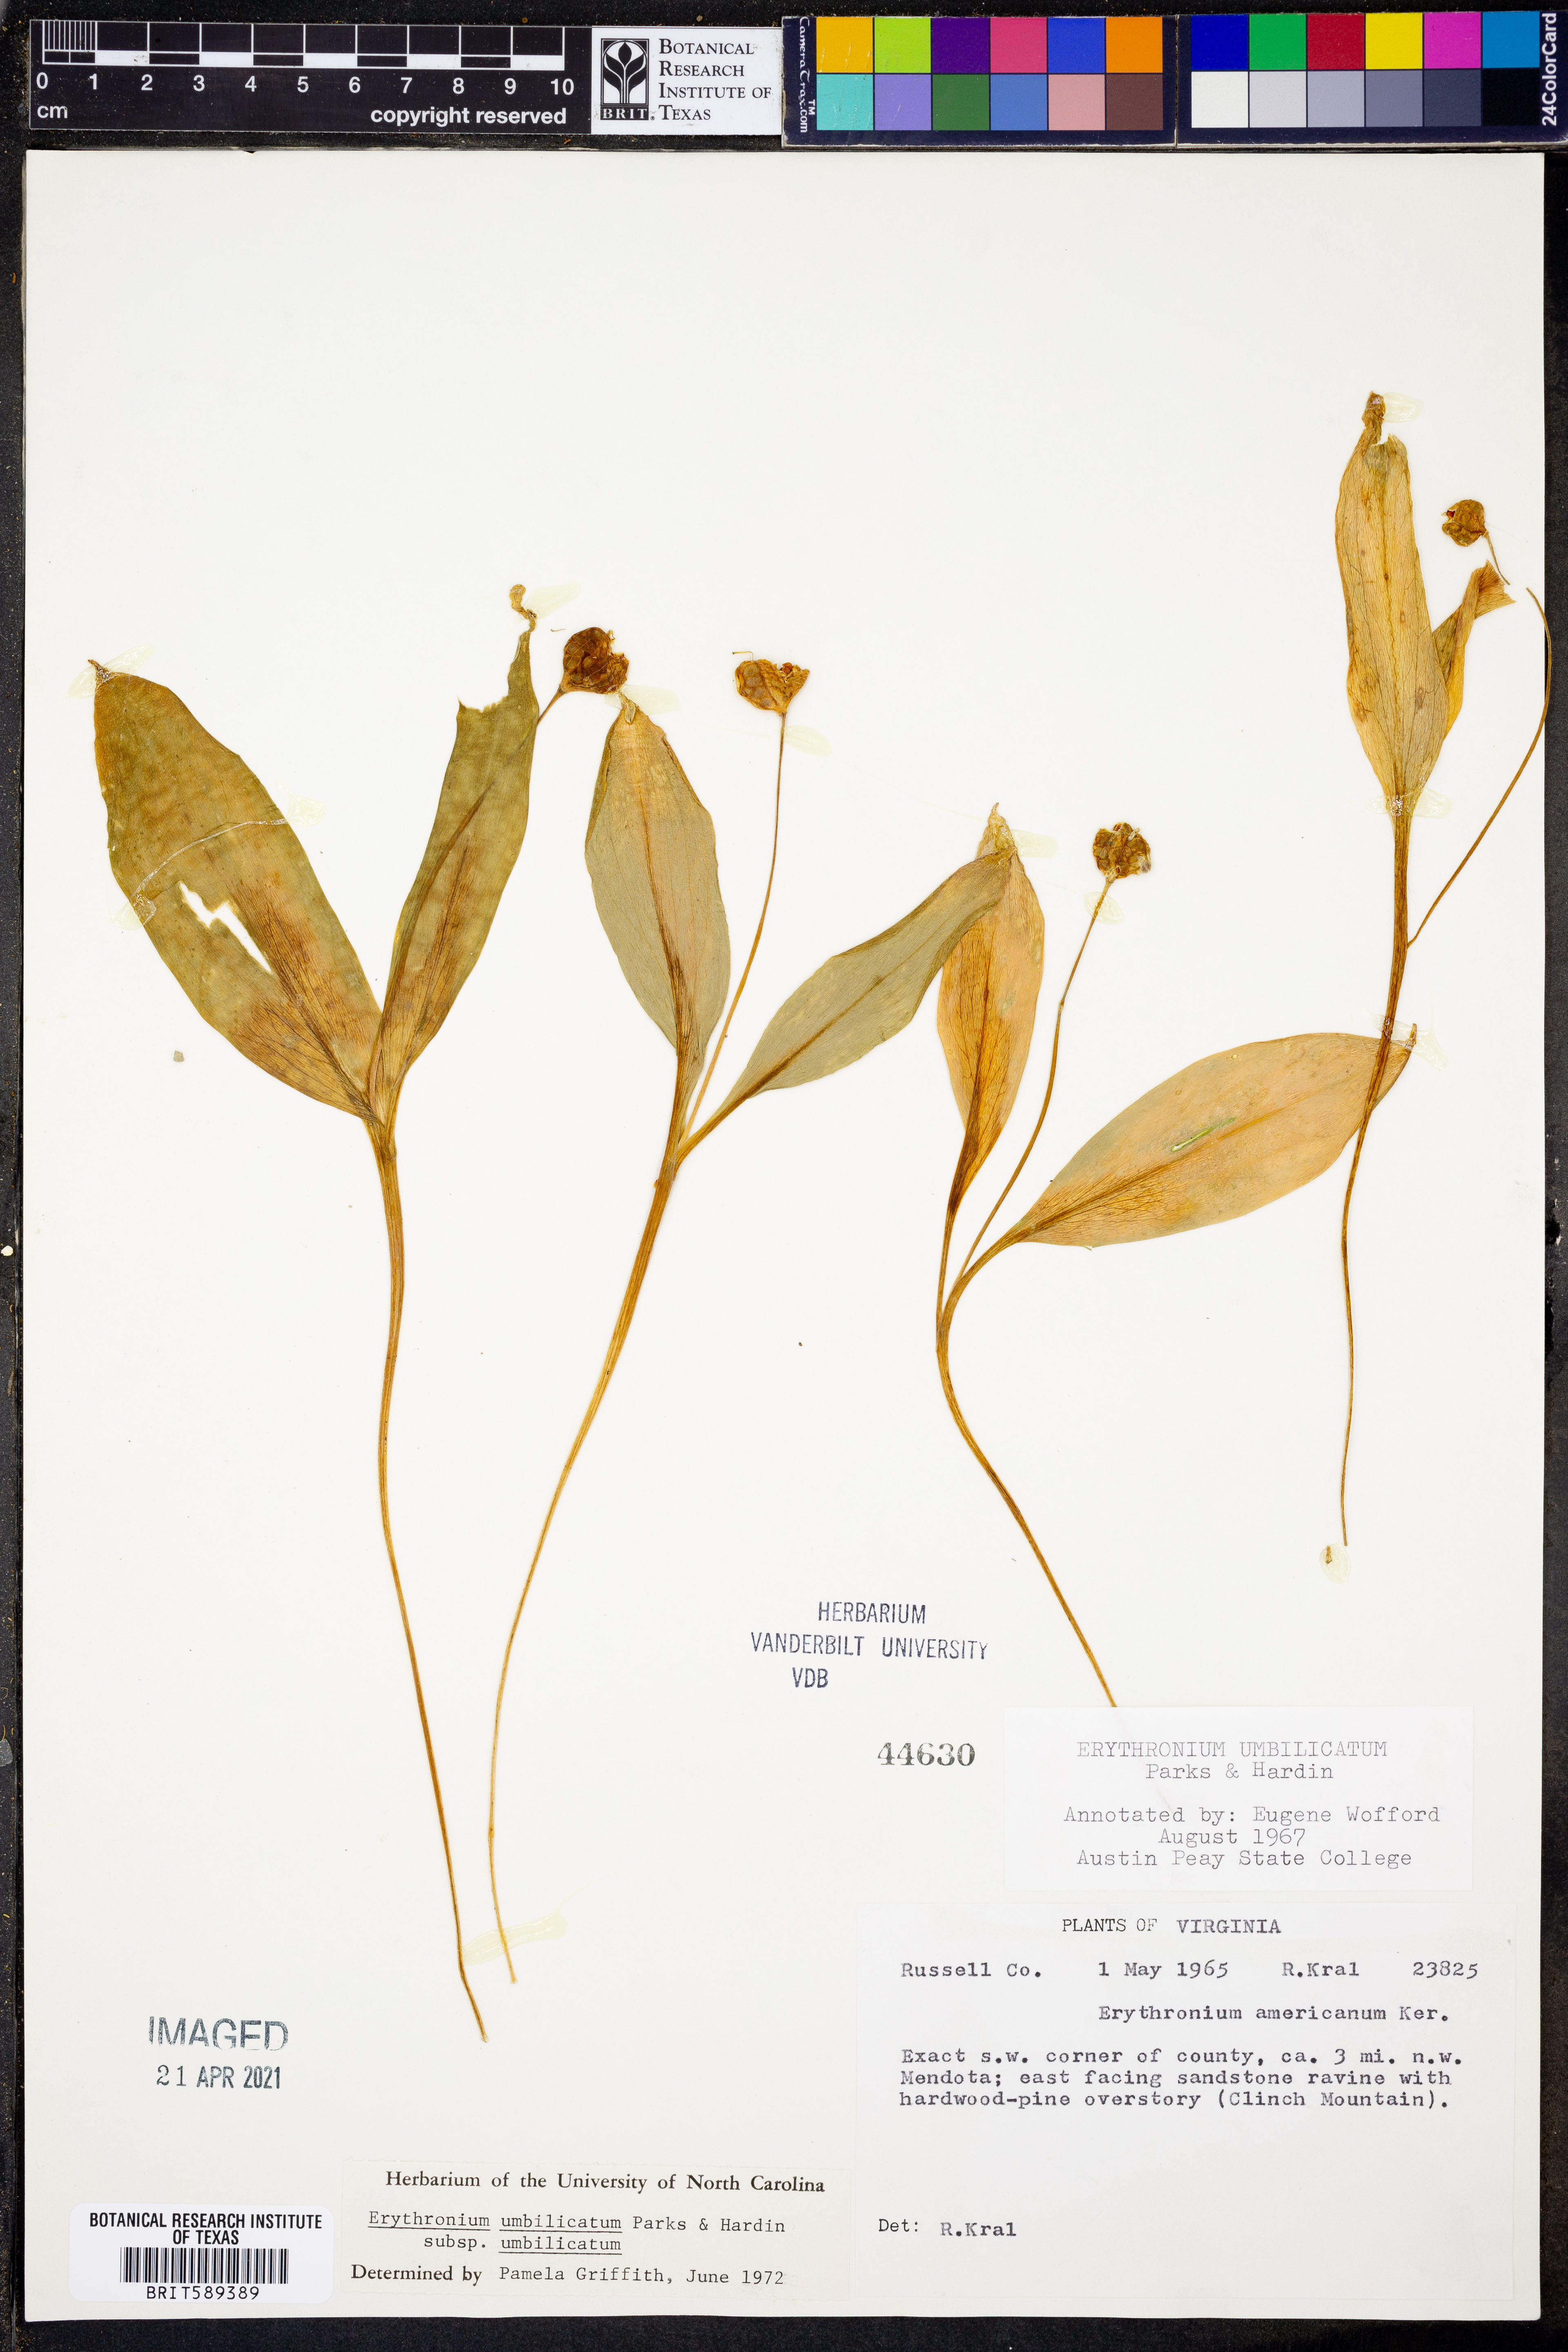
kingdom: Plantae
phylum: Tracheophyta
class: Liliopsida
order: Liliales
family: Liliaceae
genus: Erythronium
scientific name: Erythronium umbilicatum
